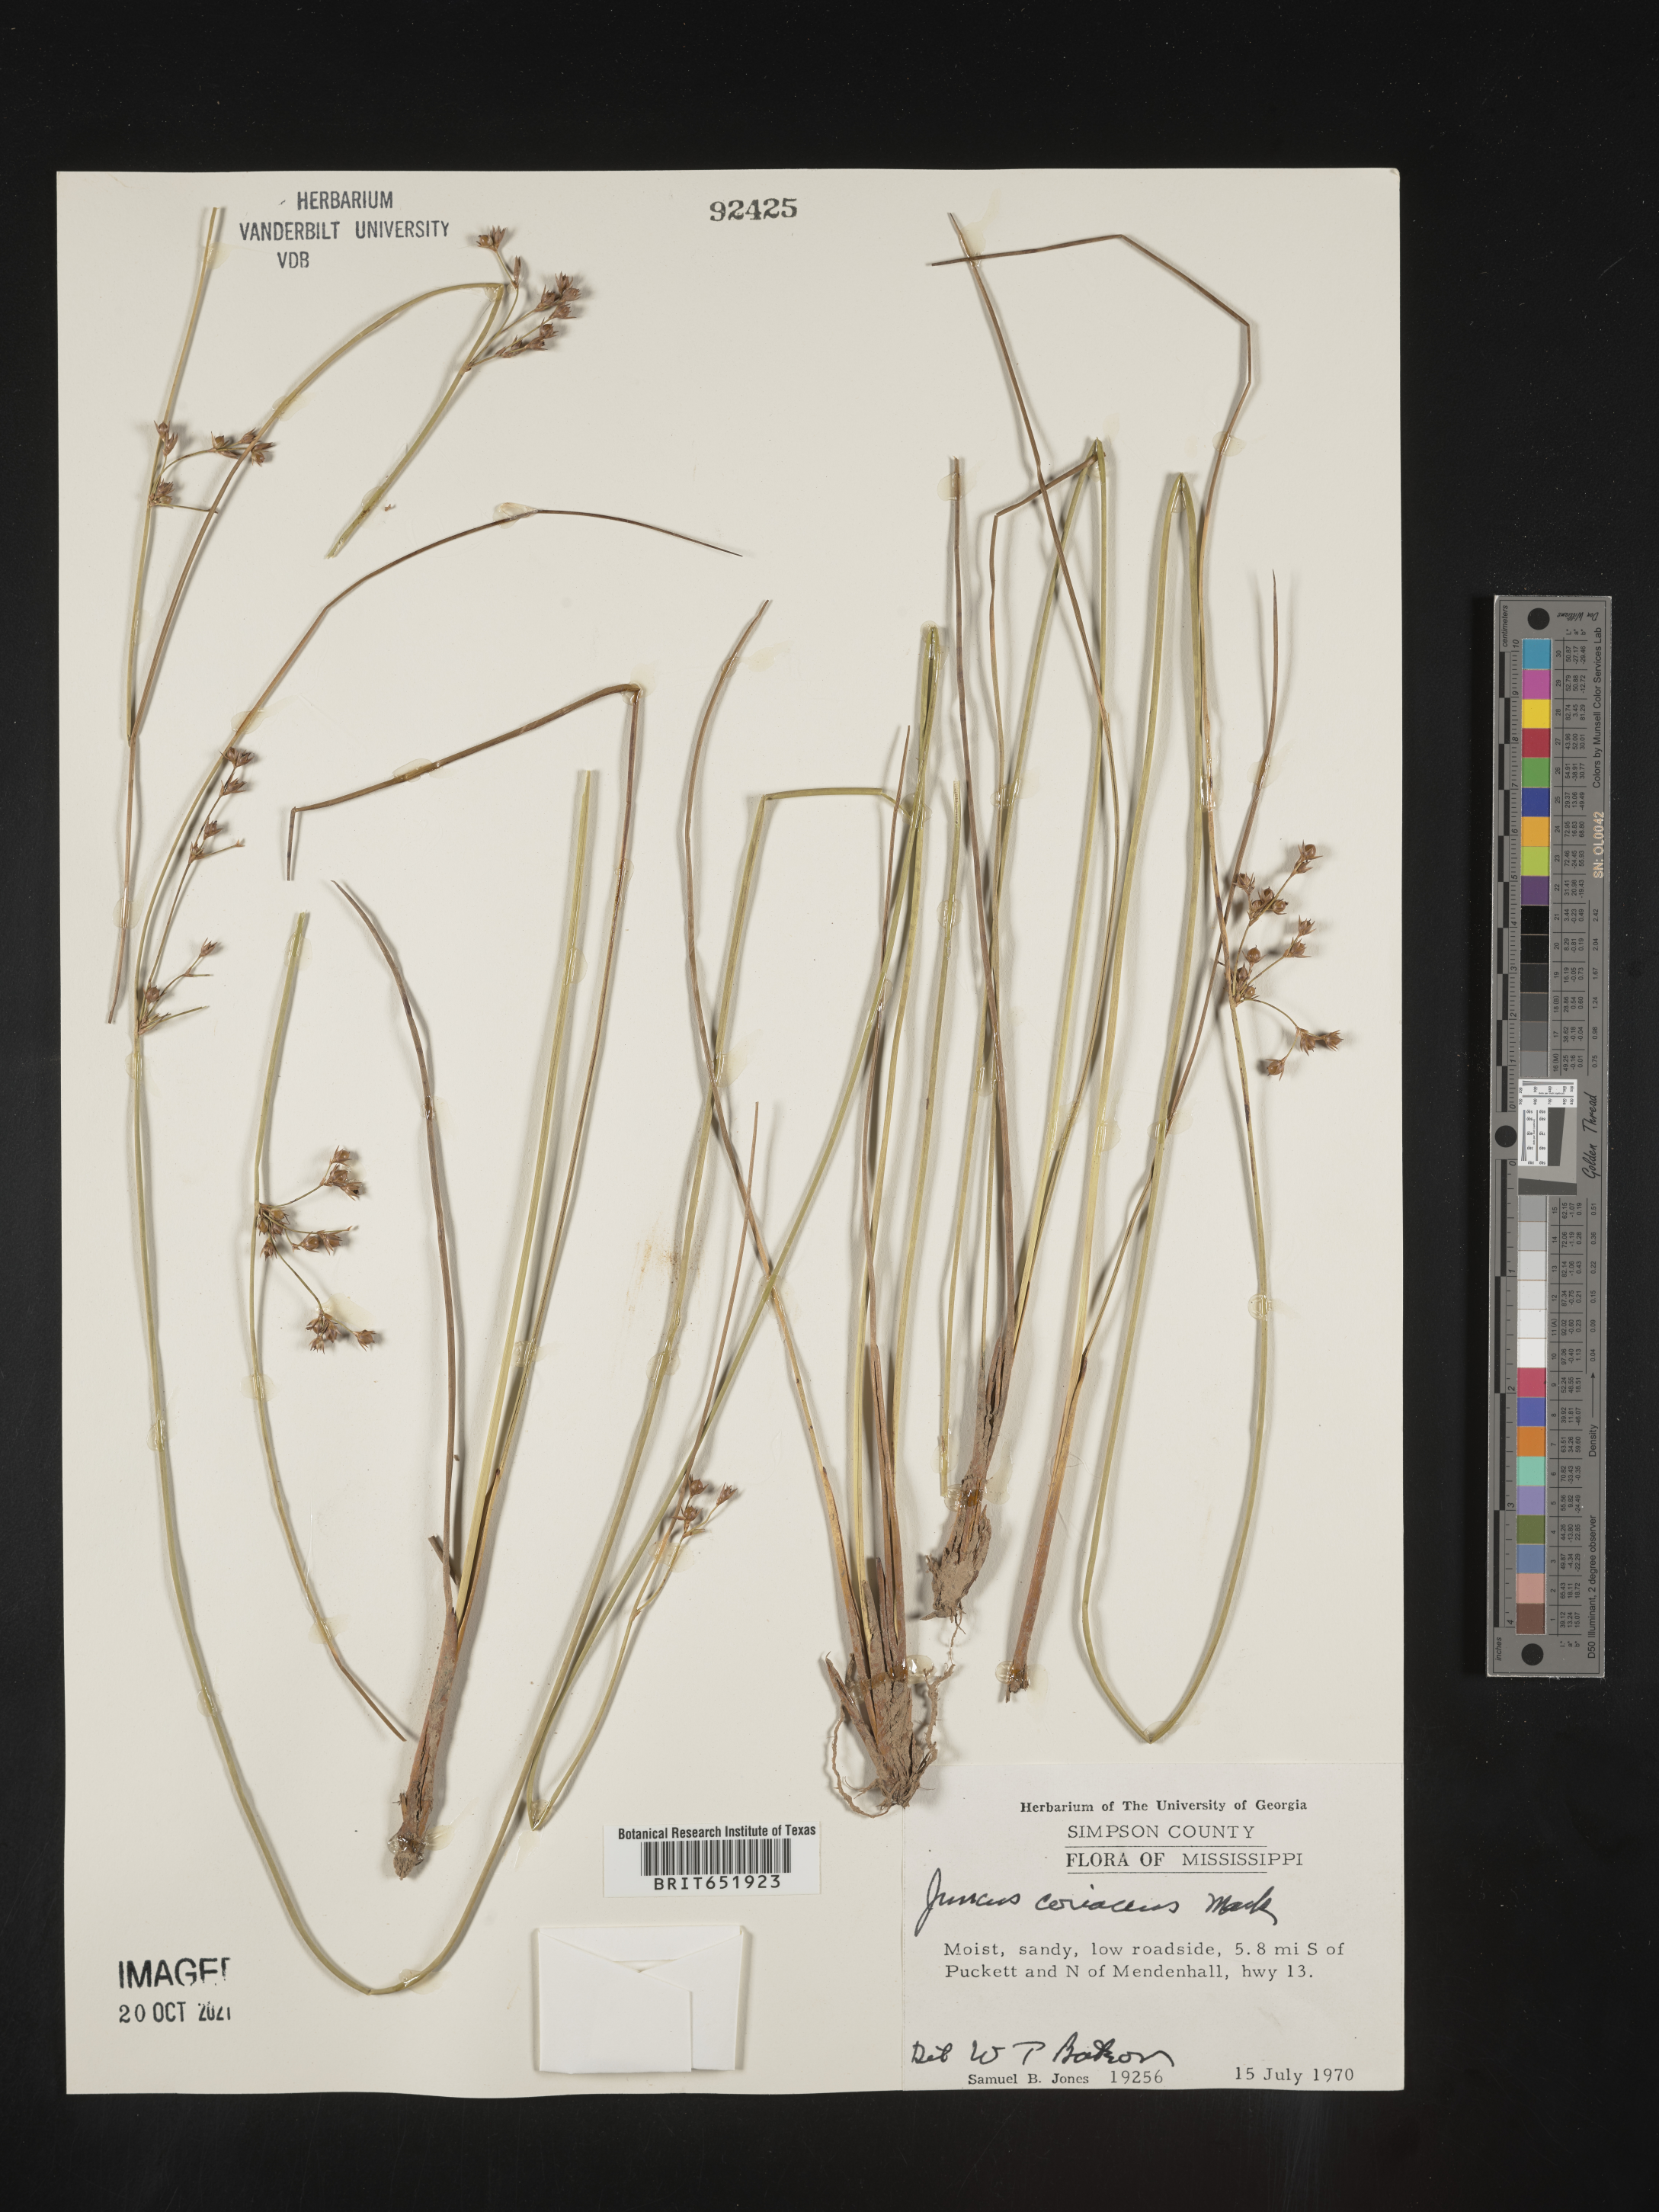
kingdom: Plantae
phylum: Tracheophyta
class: Liliopsida
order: Poales
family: Juncaceae
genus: Juncus
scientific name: Juncus coriaceus
